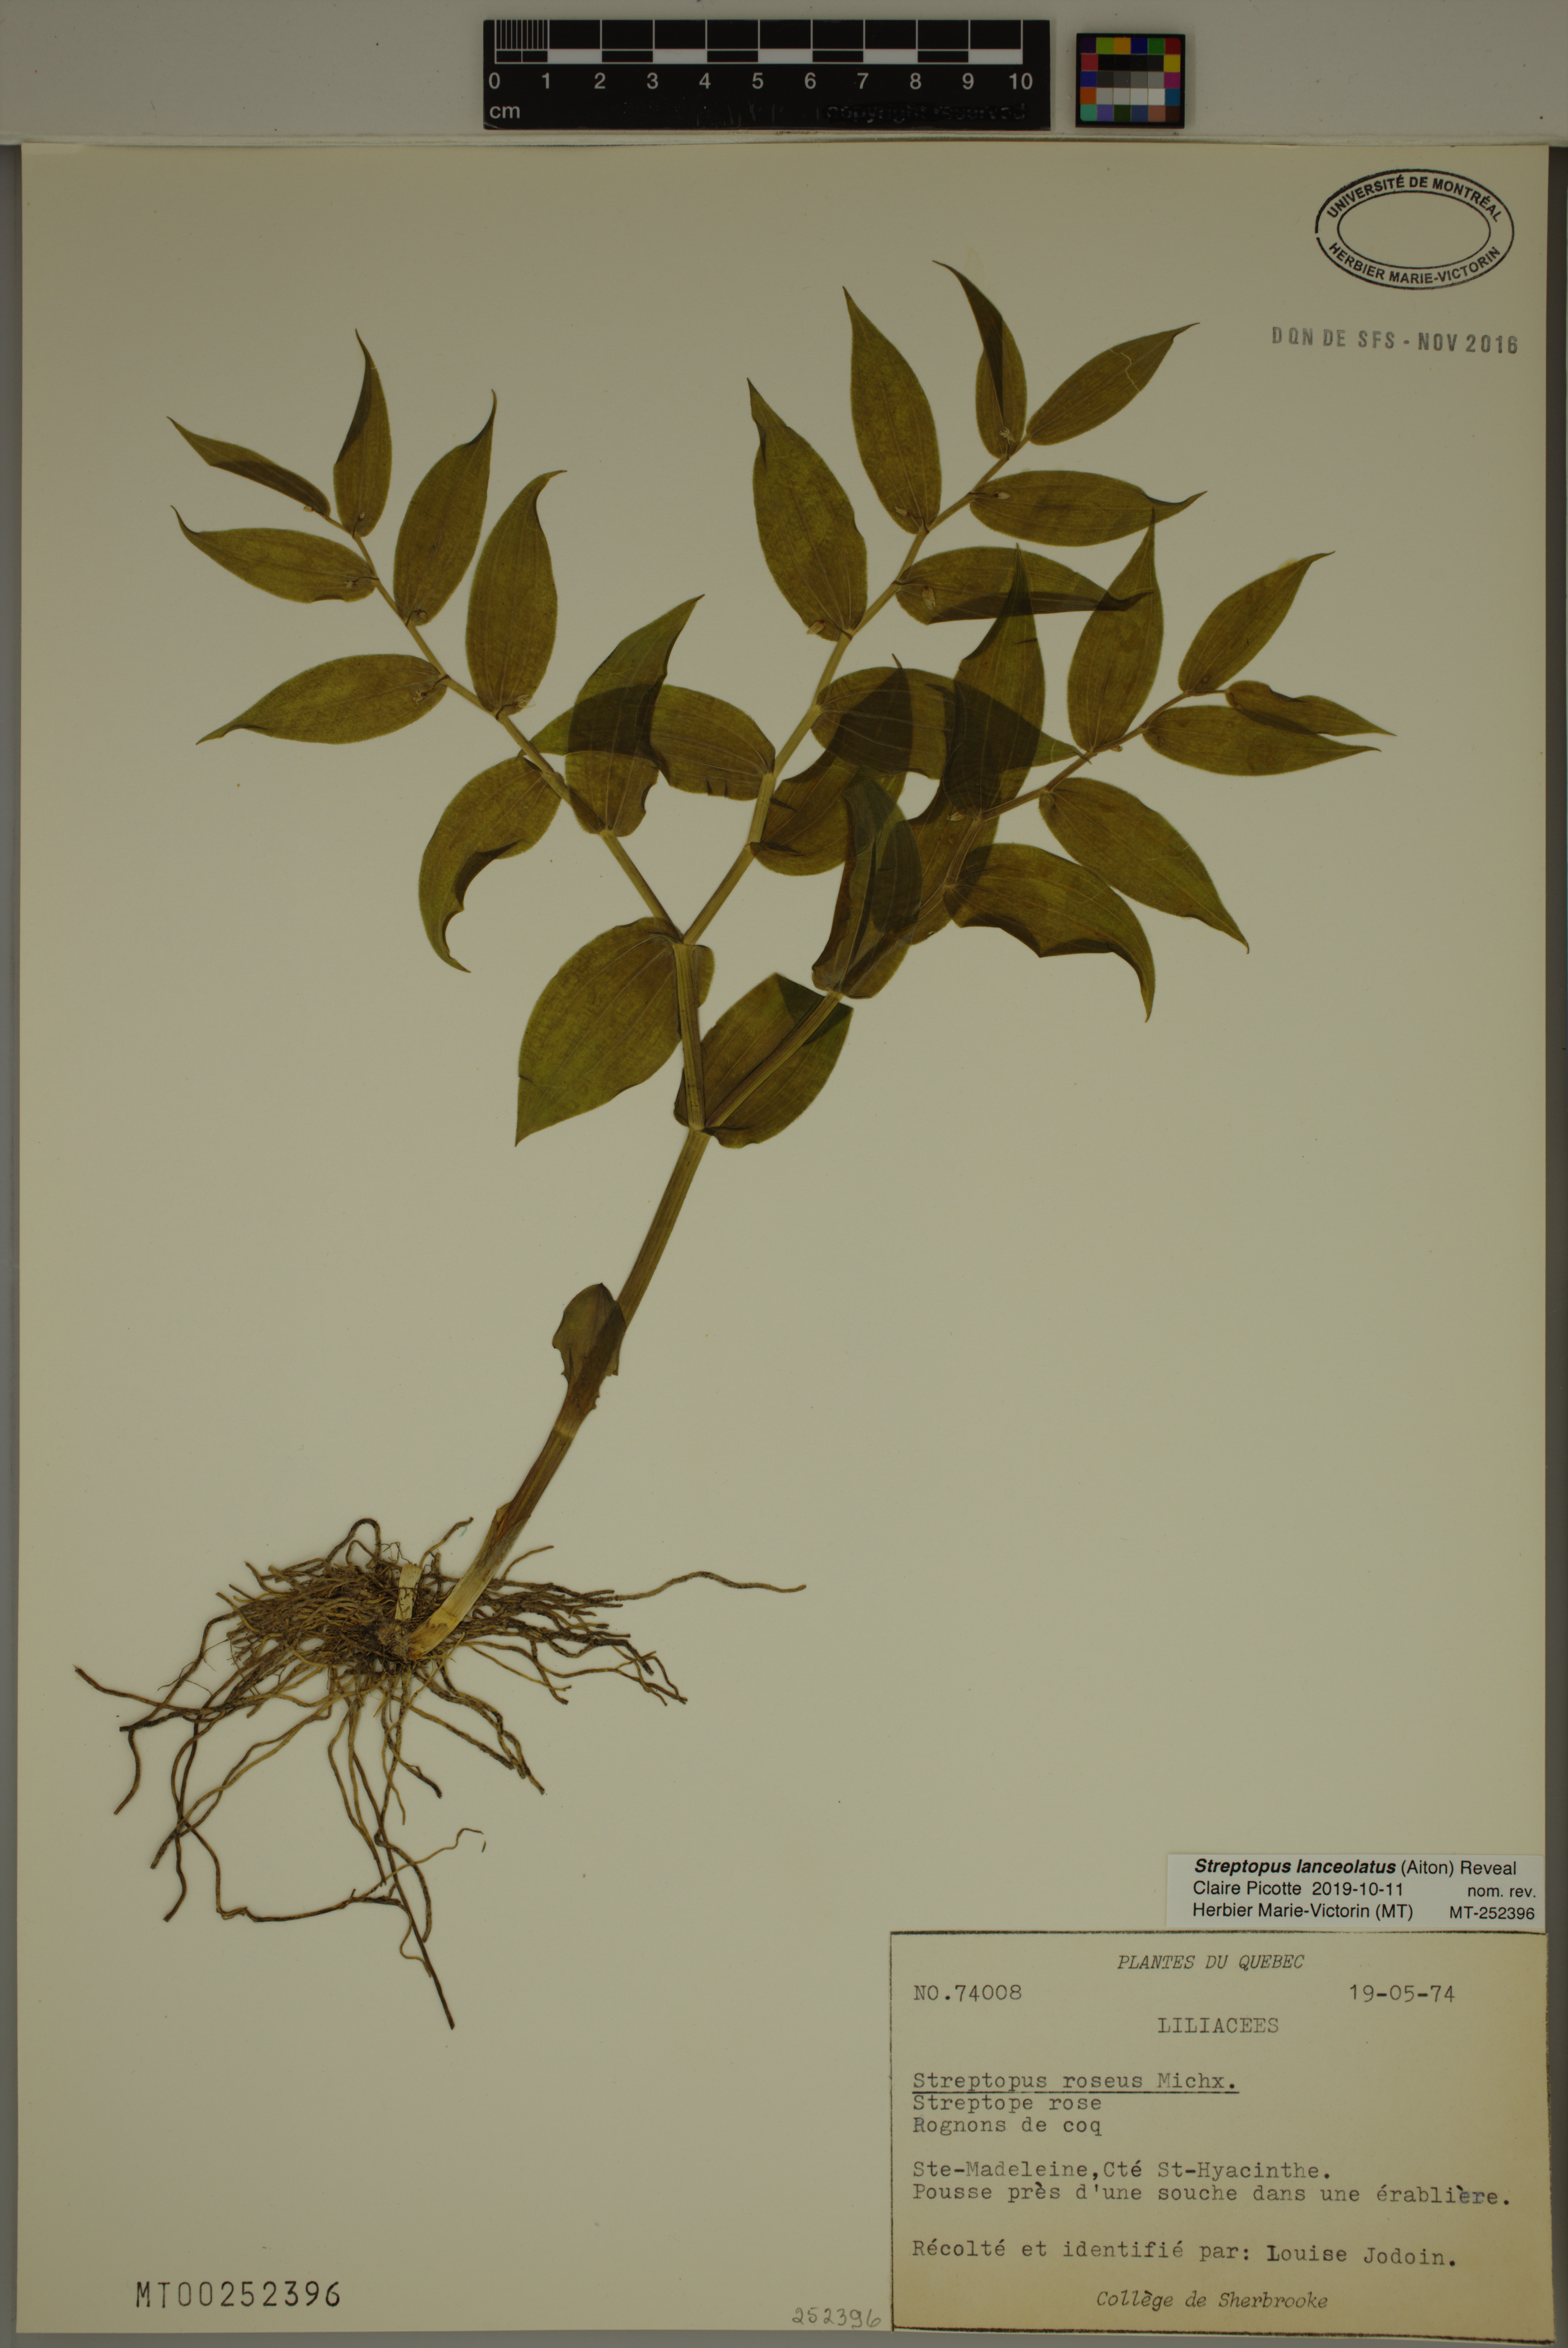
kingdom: Plantae
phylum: Tracheophyta
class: Liliopsida
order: Liliales
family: Liliaceae
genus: Streptopus
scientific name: Streptopus lanceolatus
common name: Rose mandarin
